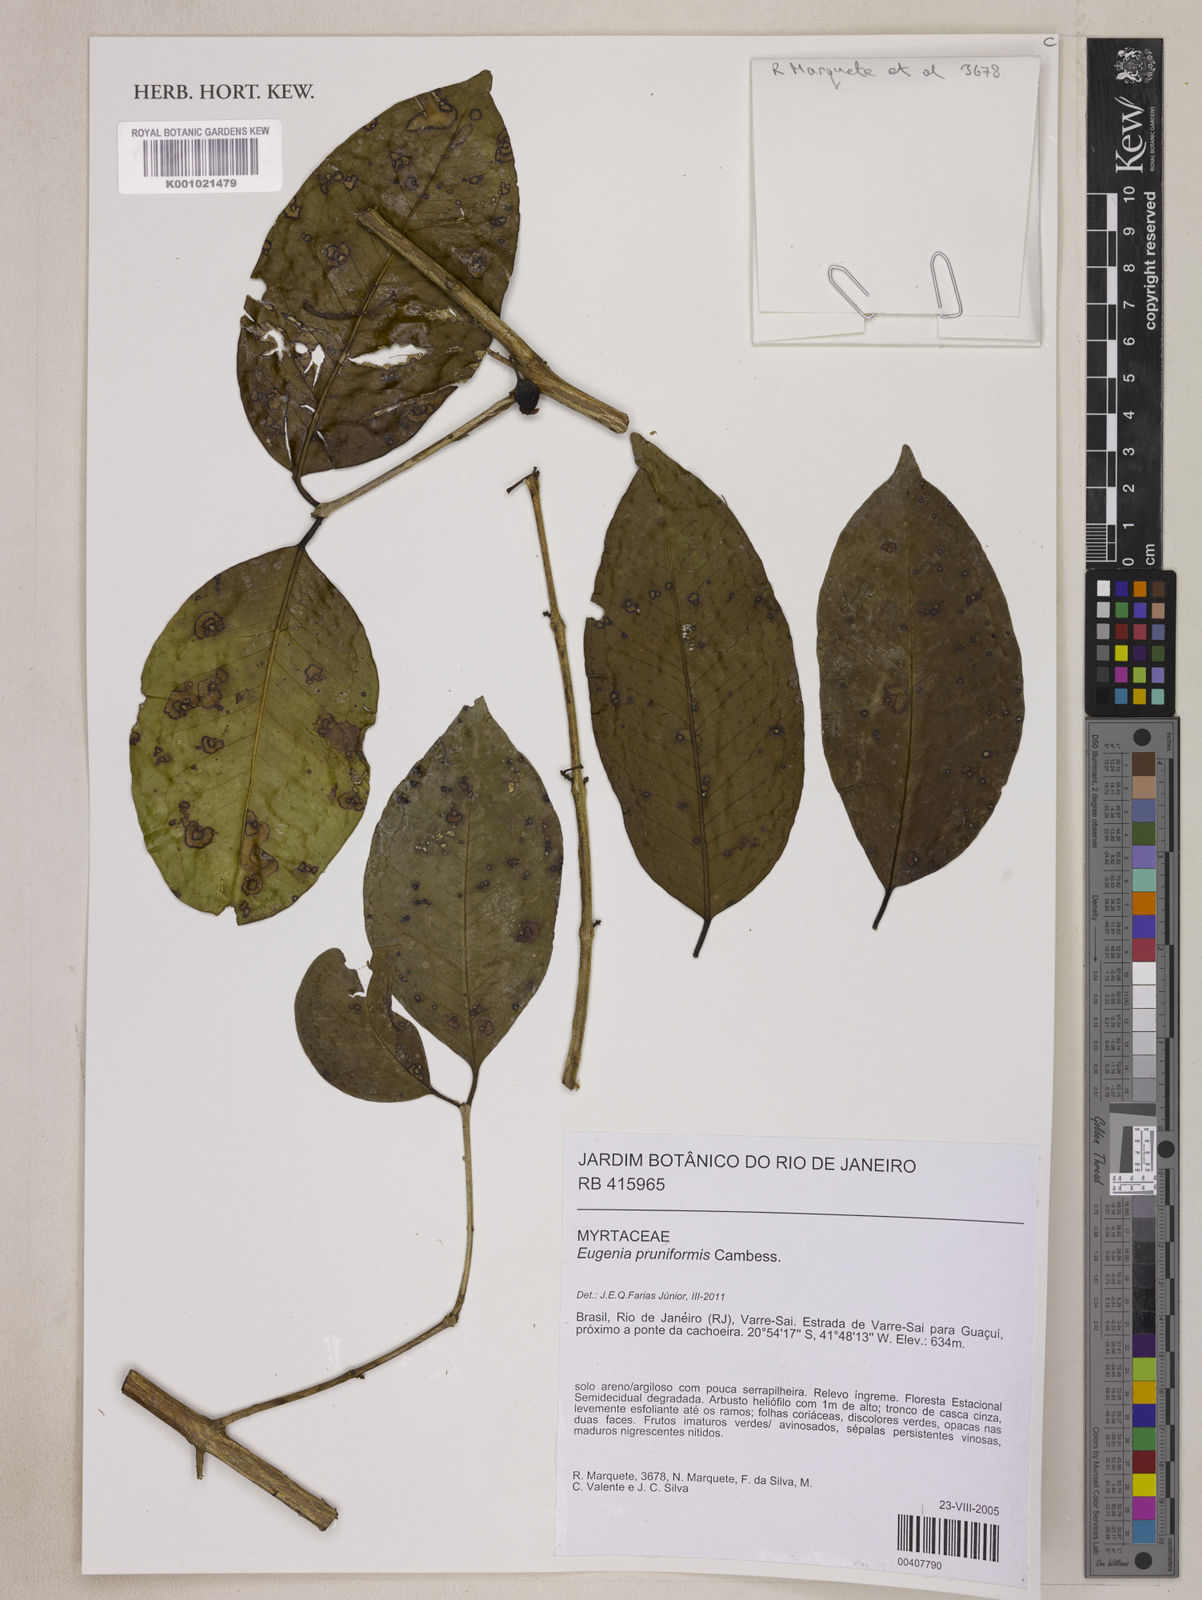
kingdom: Plantae
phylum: Tracheophyta
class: Magnoliopsida
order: Myrtales
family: Myrtaceae
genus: Eugenia
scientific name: Eugenia pruniformis
